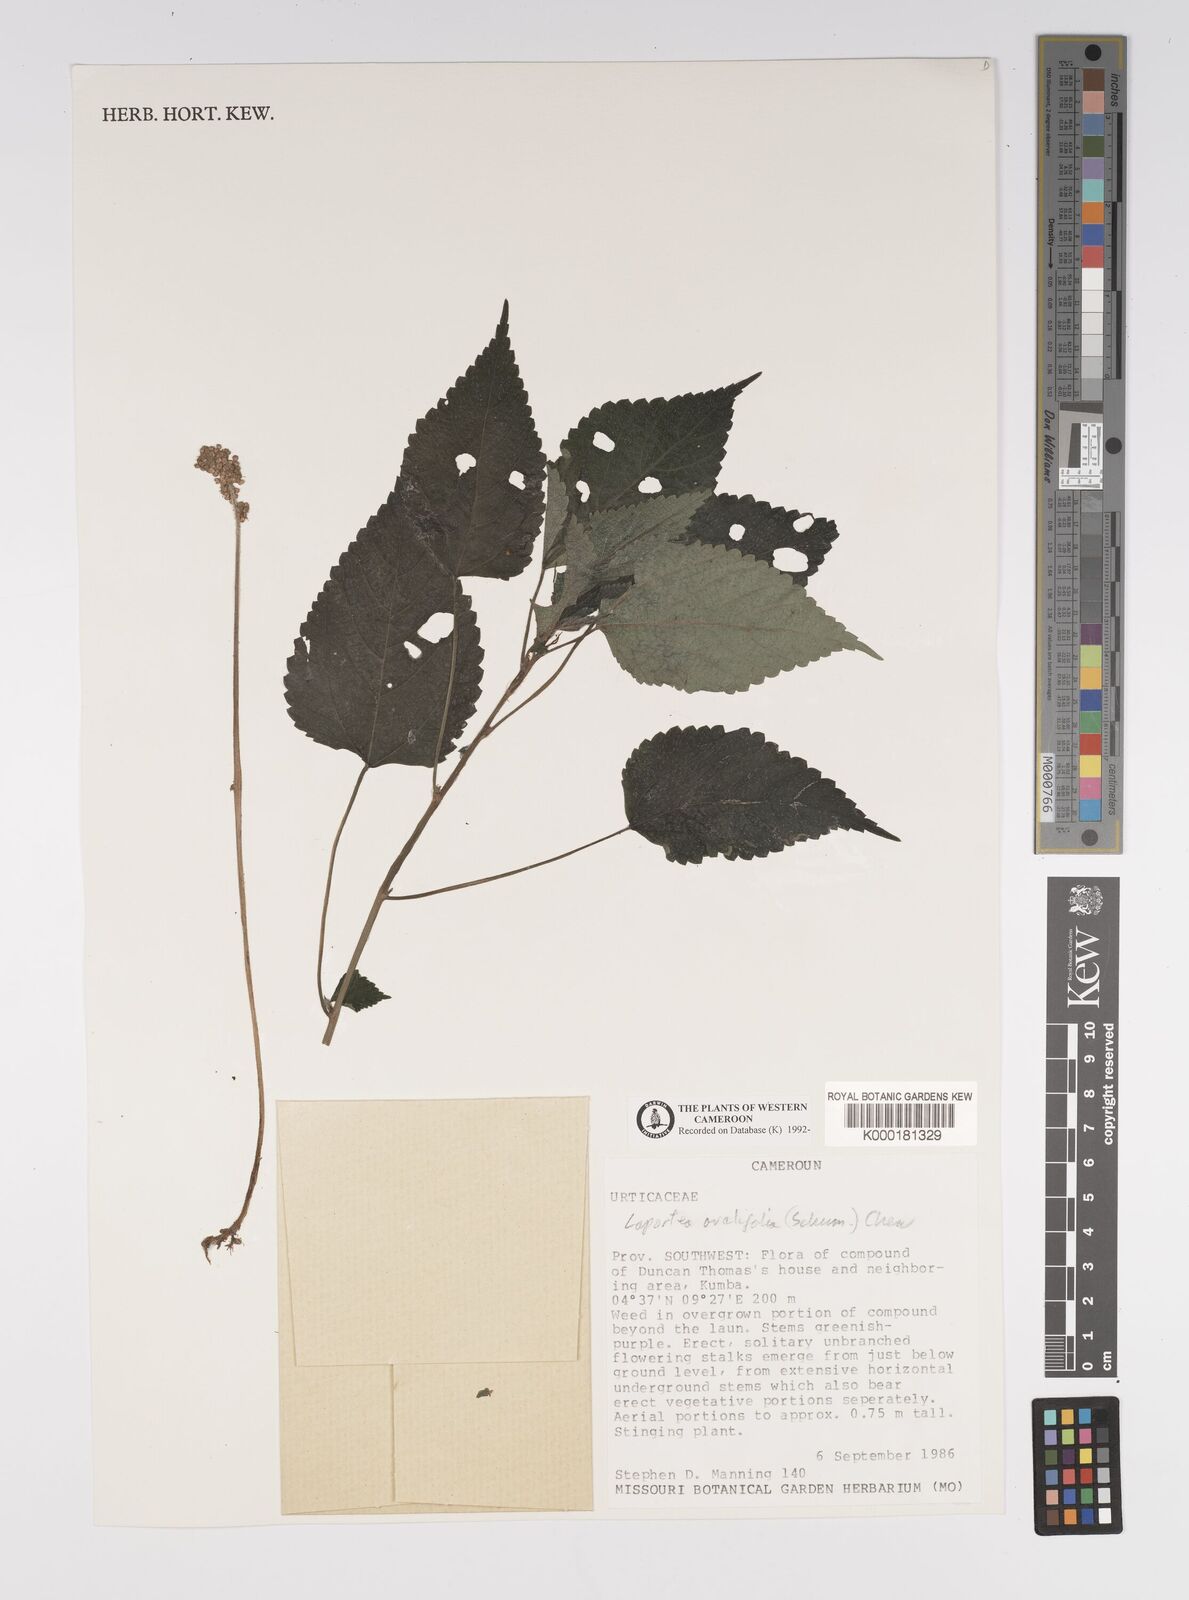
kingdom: Plantae
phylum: Tracheophyta
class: Magnoliopsida
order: Rosales
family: Urticaceae
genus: Laportea
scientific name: Laportea ovalifolia
